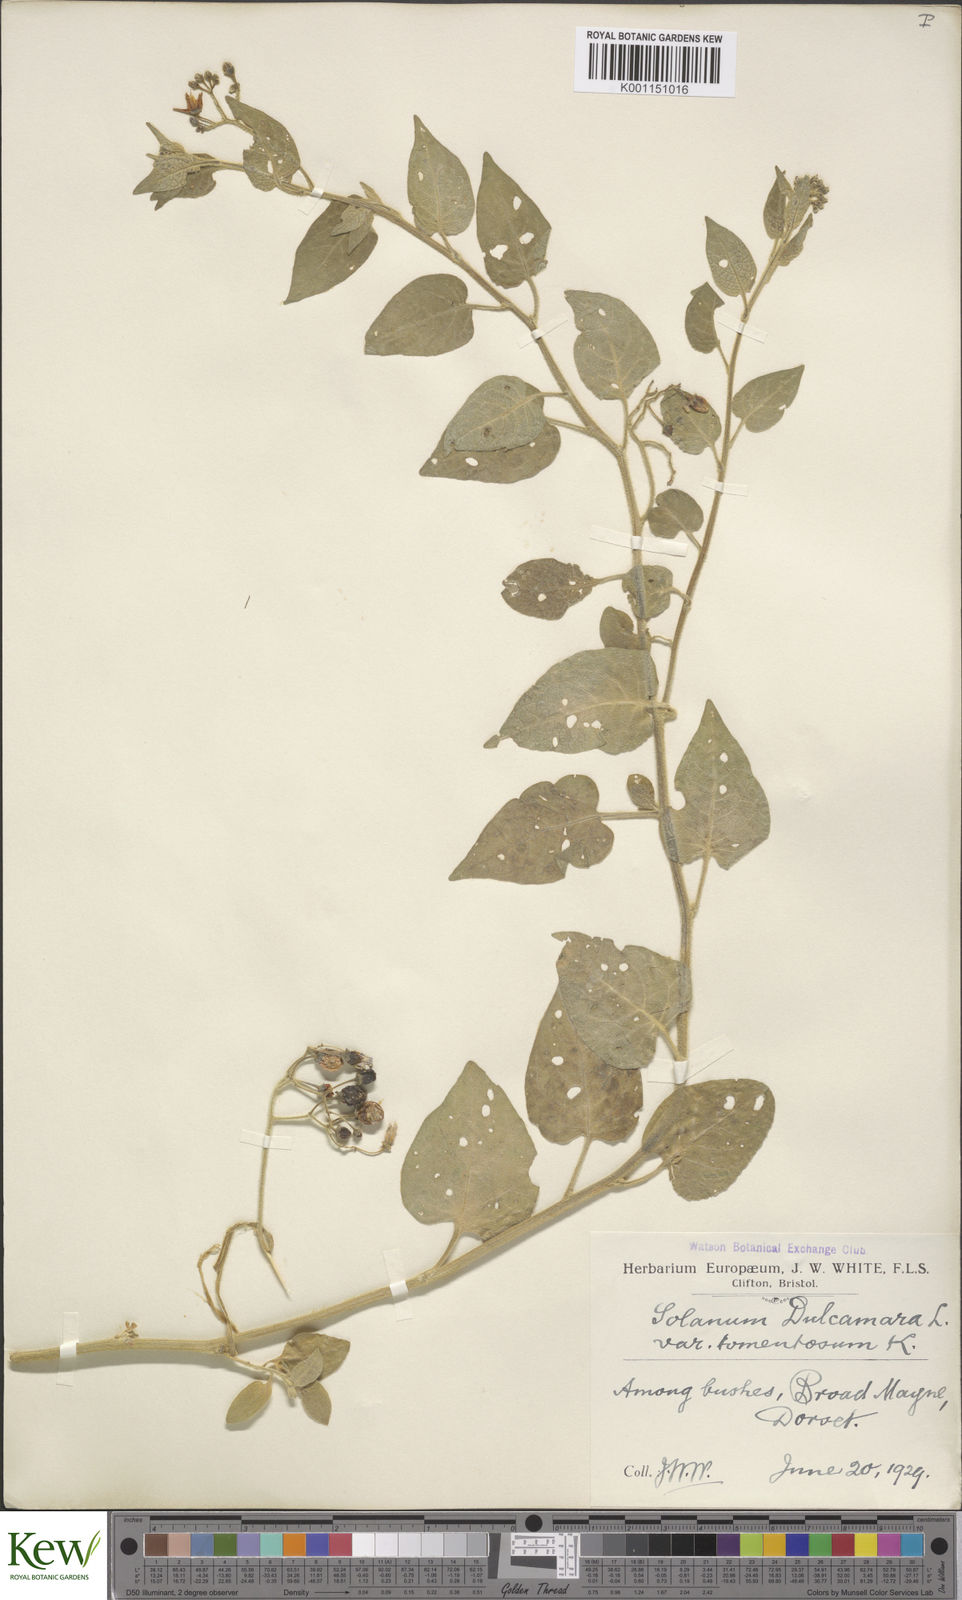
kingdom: Plantae
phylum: Tracheophyta
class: Magnoliopsida
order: Solanales
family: Solanaceae
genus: Solanum
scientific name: Solanum dulcamara
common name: Climbing nightshade
